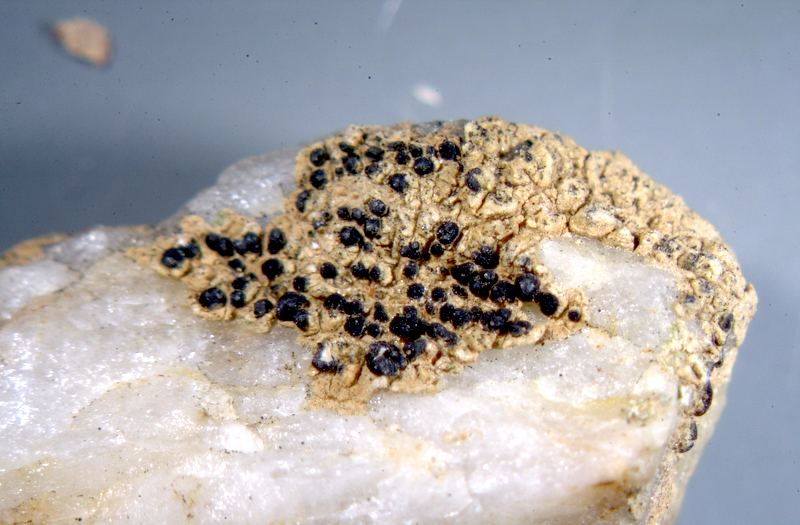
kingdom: Fungi
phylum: Ascomycota
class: Lecanoromycetes
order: Teloschistales
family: Teloschistaceae
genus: Caloplaca
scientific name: Caloplaca
